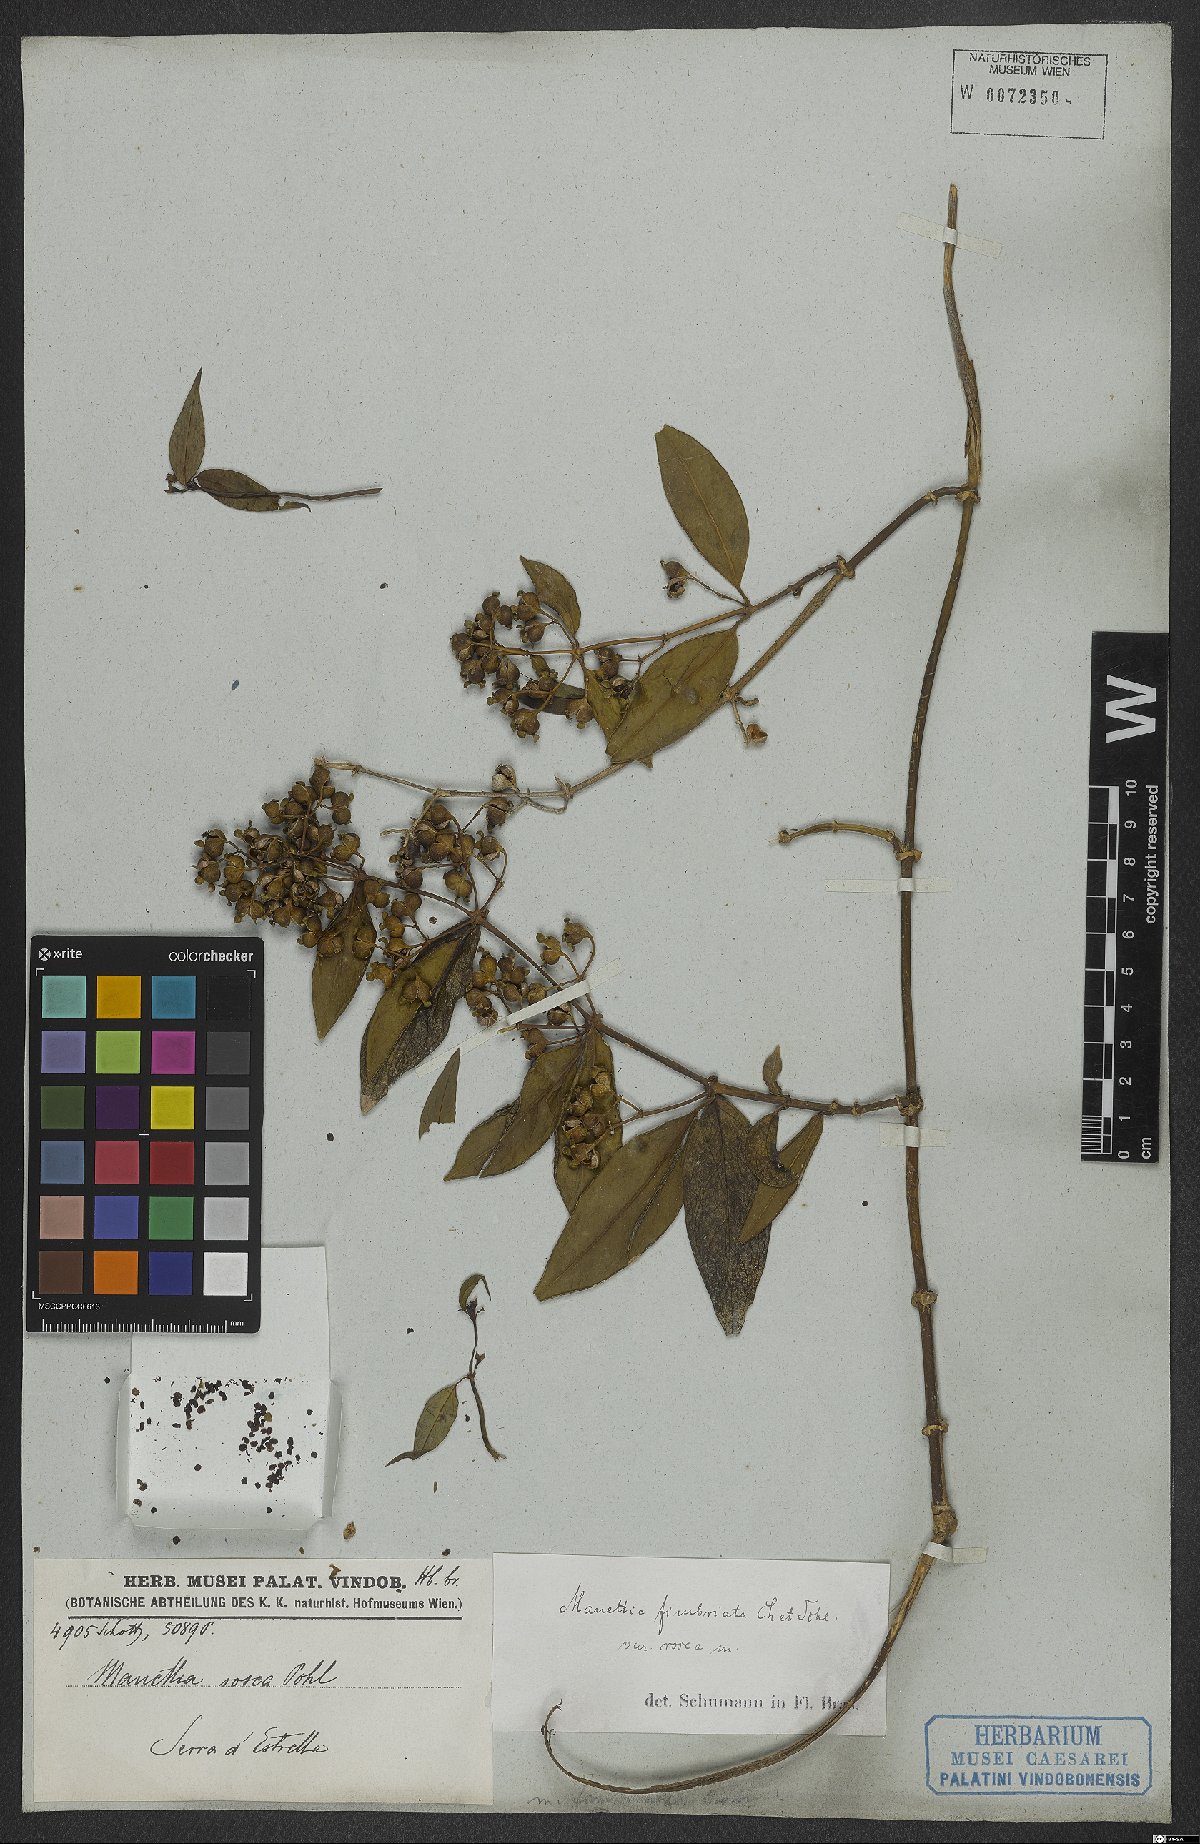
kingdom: Plantae
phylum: Tracheophyta
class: Magnoliopsida
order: Gentianales
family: Rubiaceae
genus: Manettia
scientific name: Manettia fimbriata
